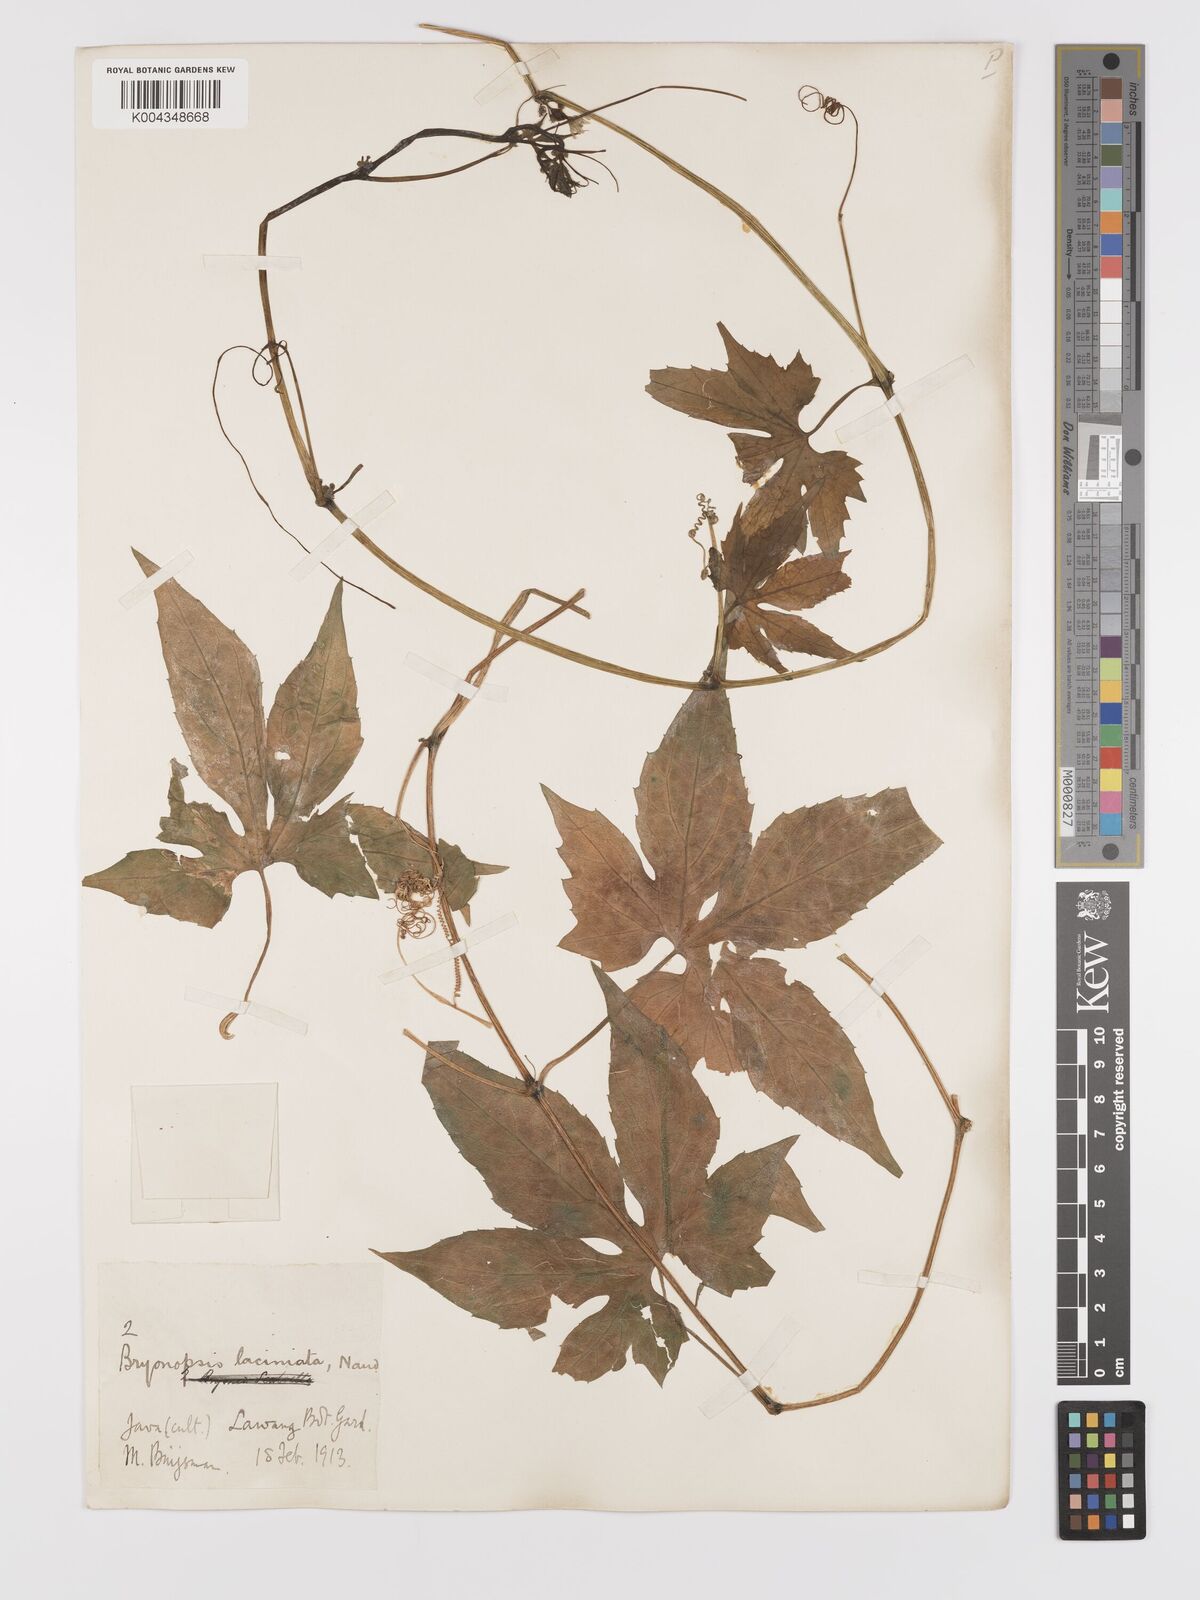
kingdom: Plantae
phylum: Tracheophyta
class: Magnoliopsida
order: Cucurbitales
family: Cucurbitaceae
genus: Diplocyclos
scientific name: Diplocyclos palmatus
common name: Striped-cucumber
